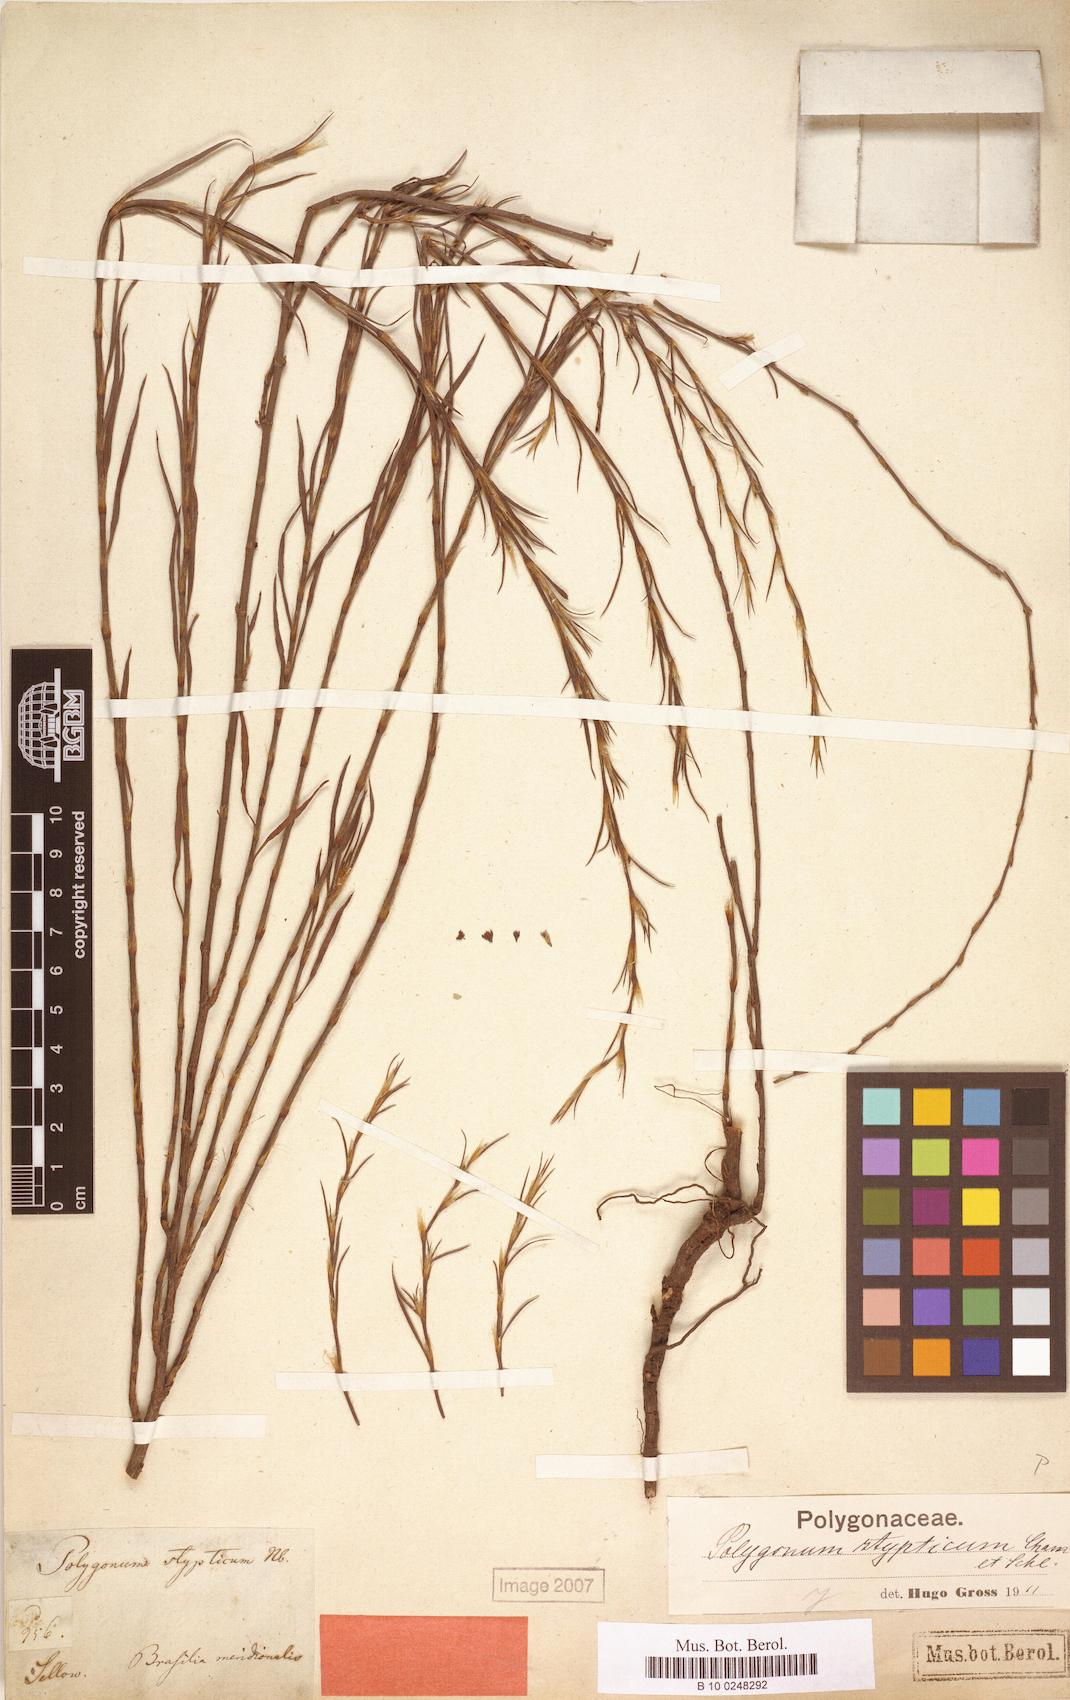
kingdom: Plantae
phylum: Tracheophyta
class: Magnoliopsida
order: Caryophyllales
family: Polygonaceae
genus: Polygonum
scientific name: Polygonum stypticum
